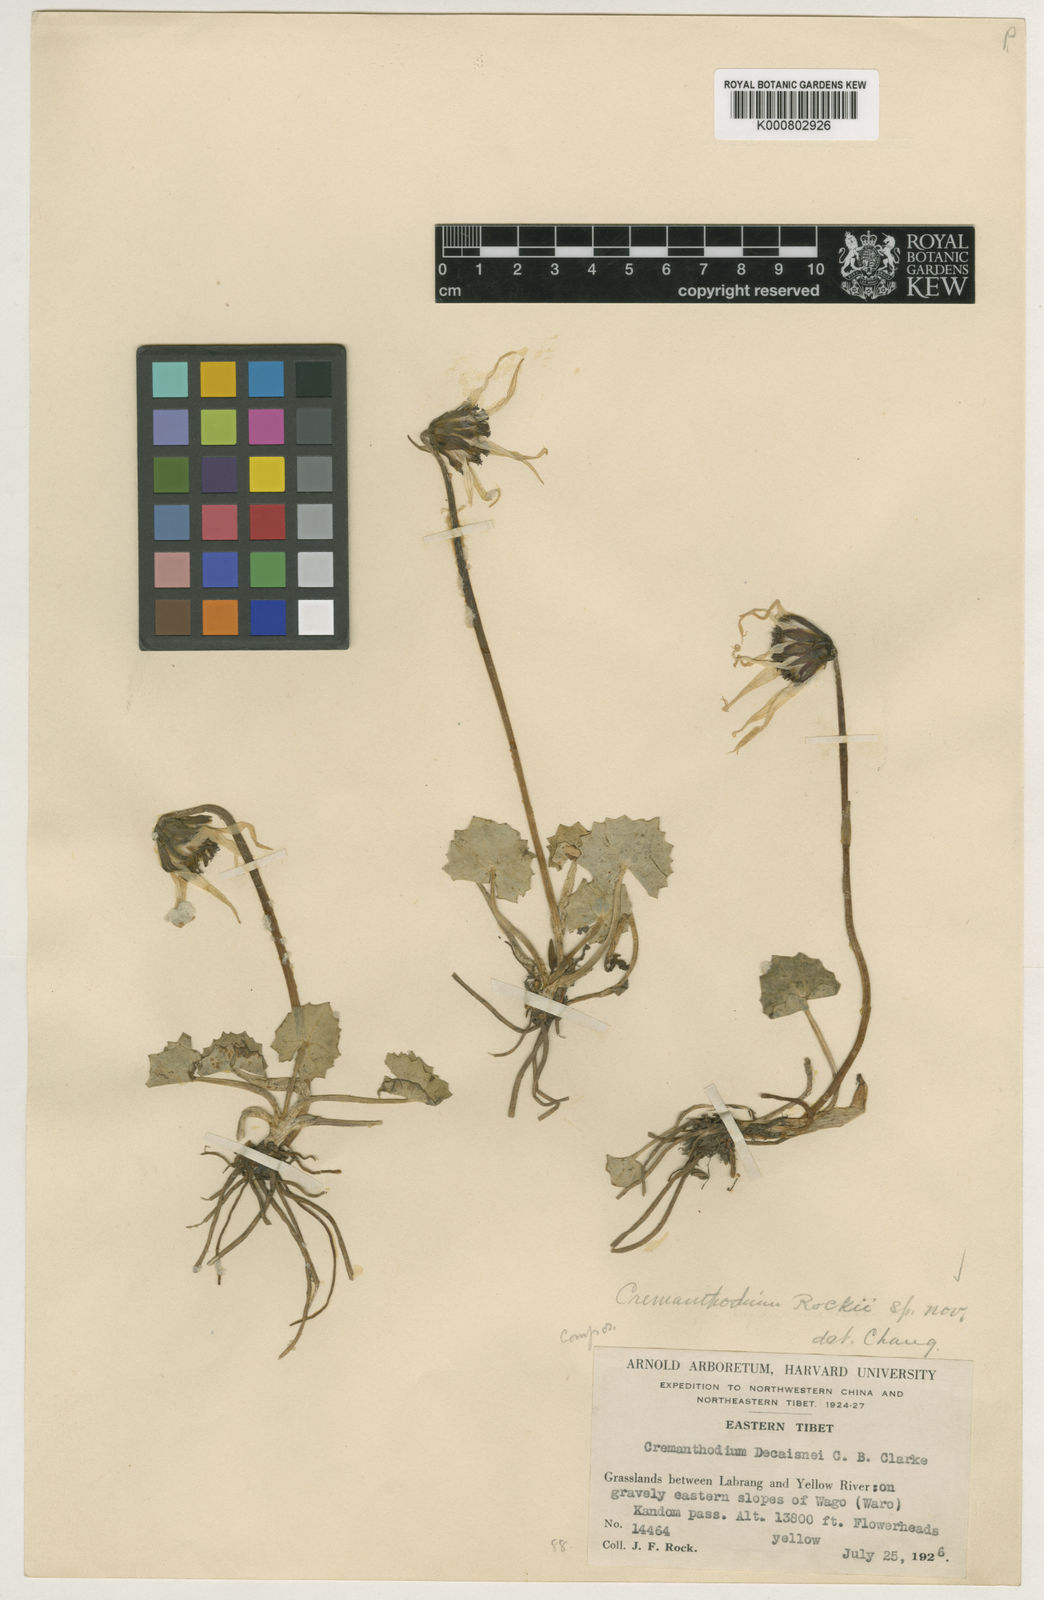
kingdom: Plantae
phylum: Tracheophyta
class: Magnoliopsida
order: Asterales
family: Asteraceae
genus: Cremanthodium
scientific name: Cremanthodium
